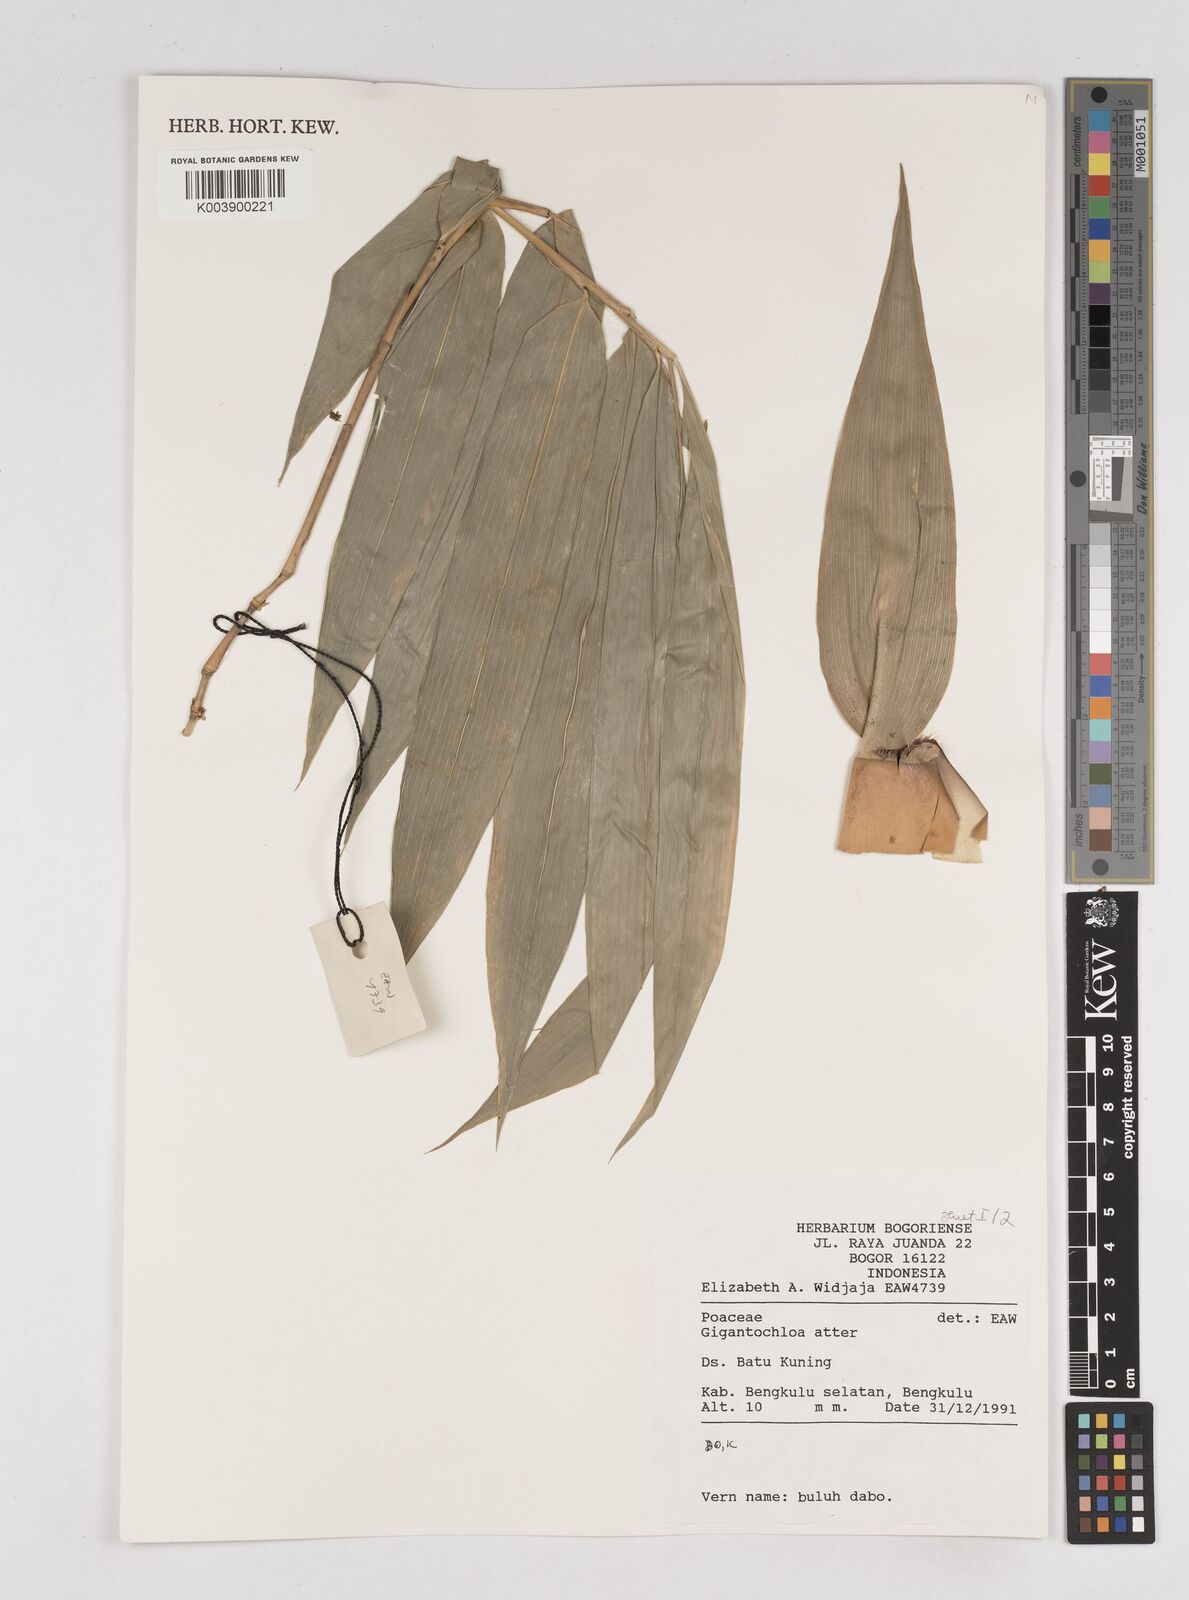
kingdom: Plantae
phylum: Tracheophyta
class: Liliopsida
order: Poales
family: Poaceae
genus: Gigantochloa
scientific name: Gigantochloa atter
